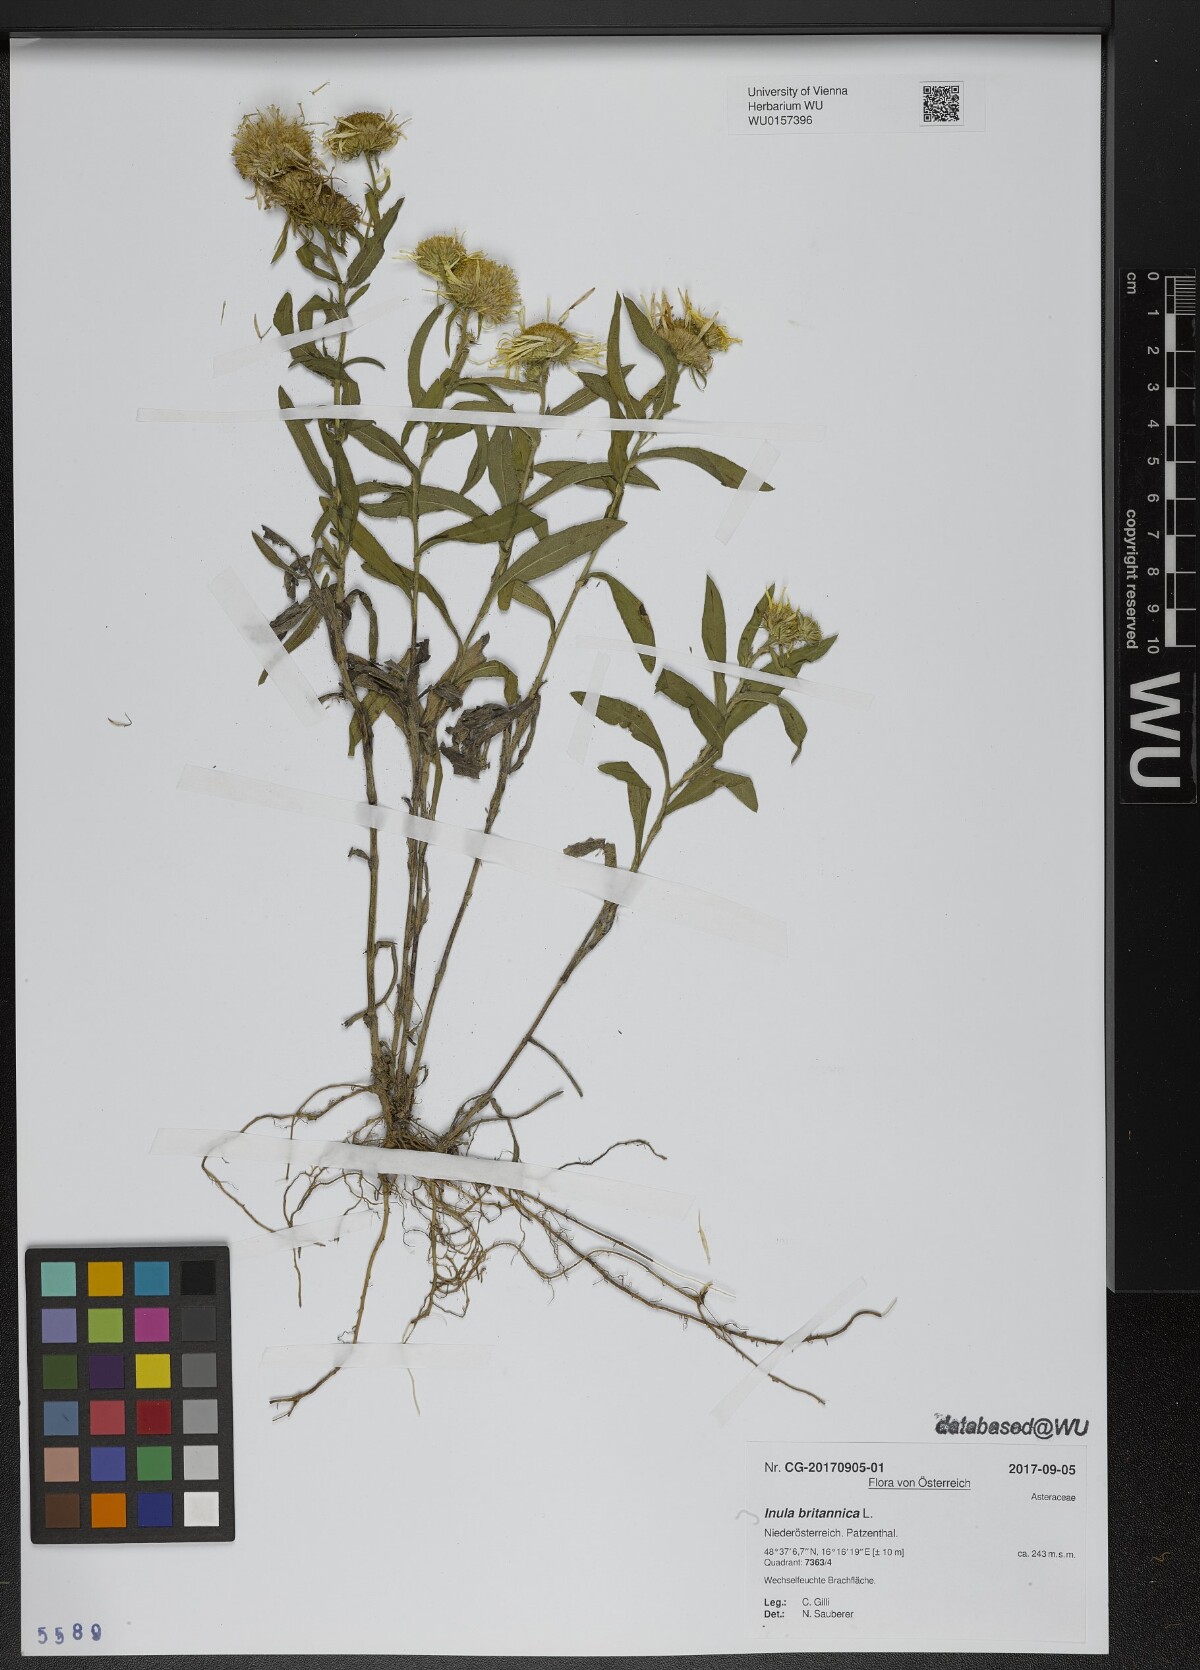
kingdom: Plantae
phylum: Tracheophyta
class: Magnoliopsida
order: Asterales
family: Asteraceae
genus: Pentanema
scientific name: Pentanema britannicum
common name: British elecampane
